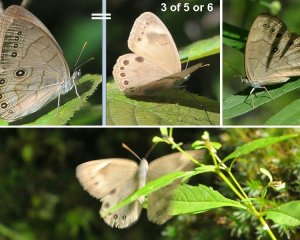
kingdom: Animalia
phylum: Arthropoda
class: Insecta
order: Lepidoptera
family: Nymphalidae
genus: Lethe
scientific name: Lethe eurydice
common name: Appalachian Eyed Brown
